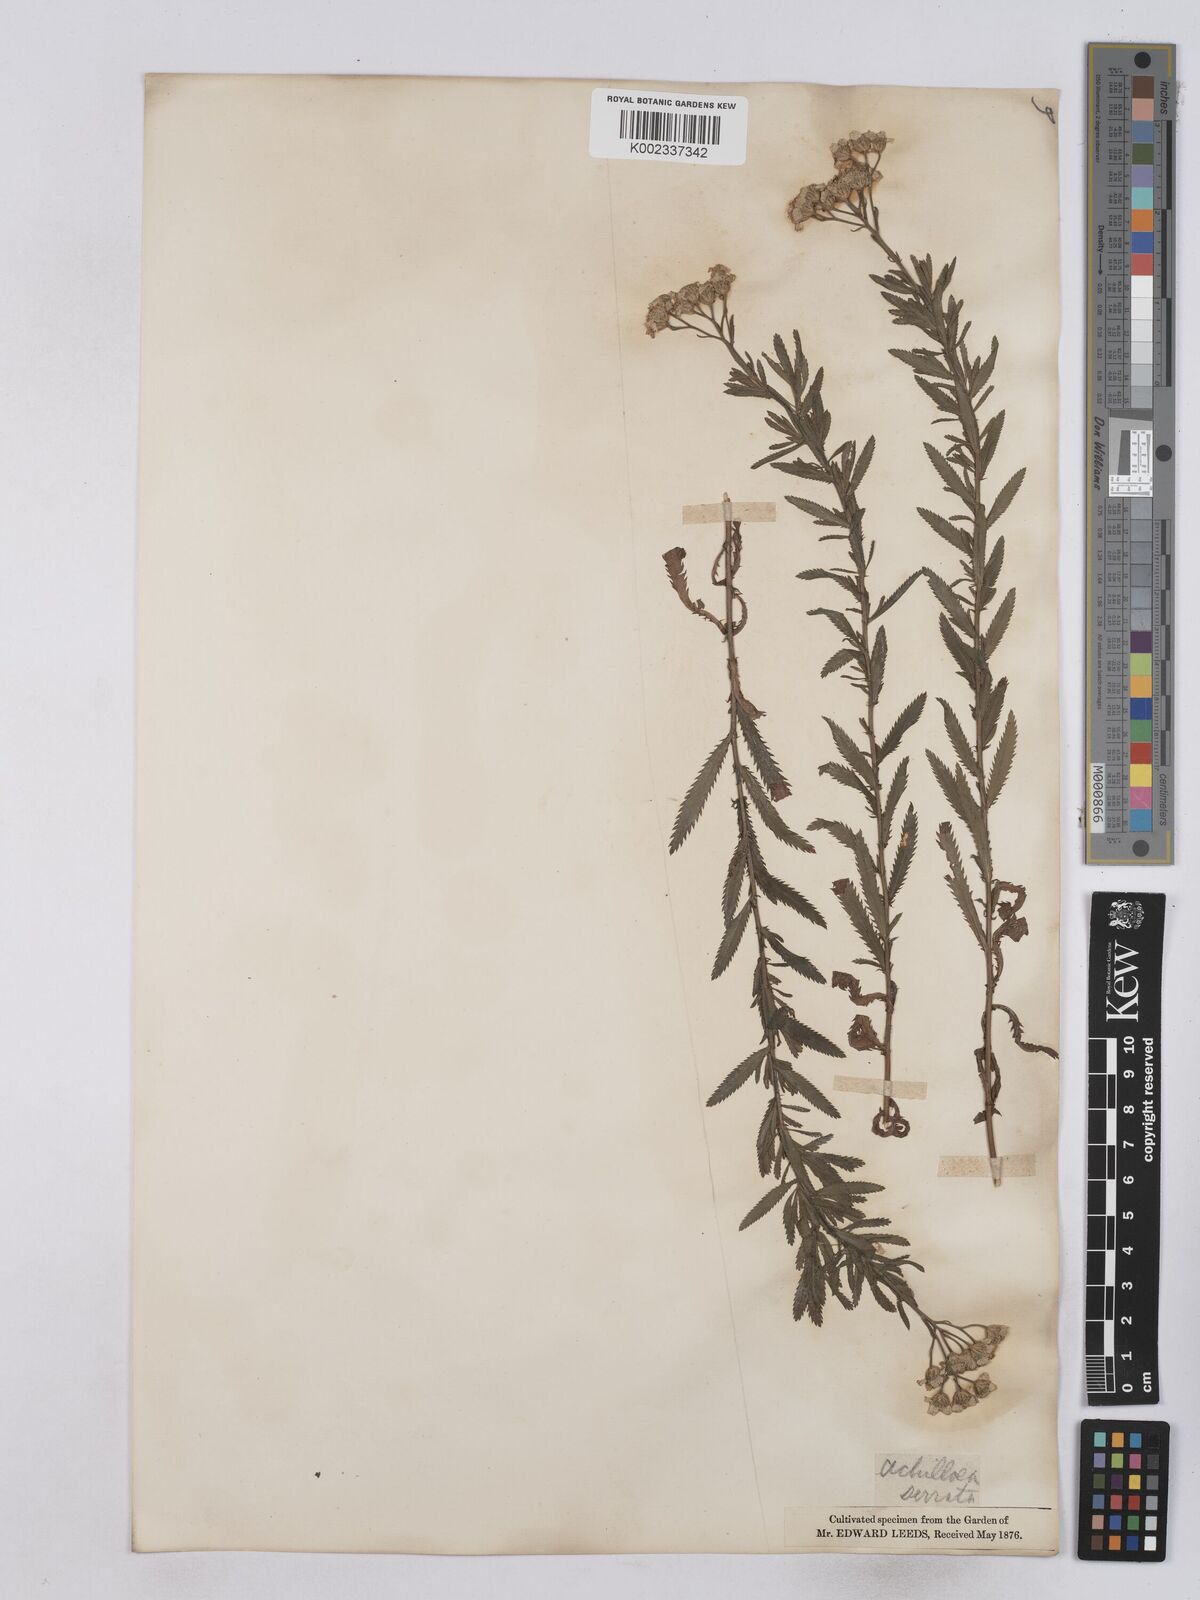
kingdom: Plantae
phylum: Tracheophyta
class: Magnoliopsida
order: Asterales
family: Asteraceae
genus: Achillea
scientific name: Achillea serrata
